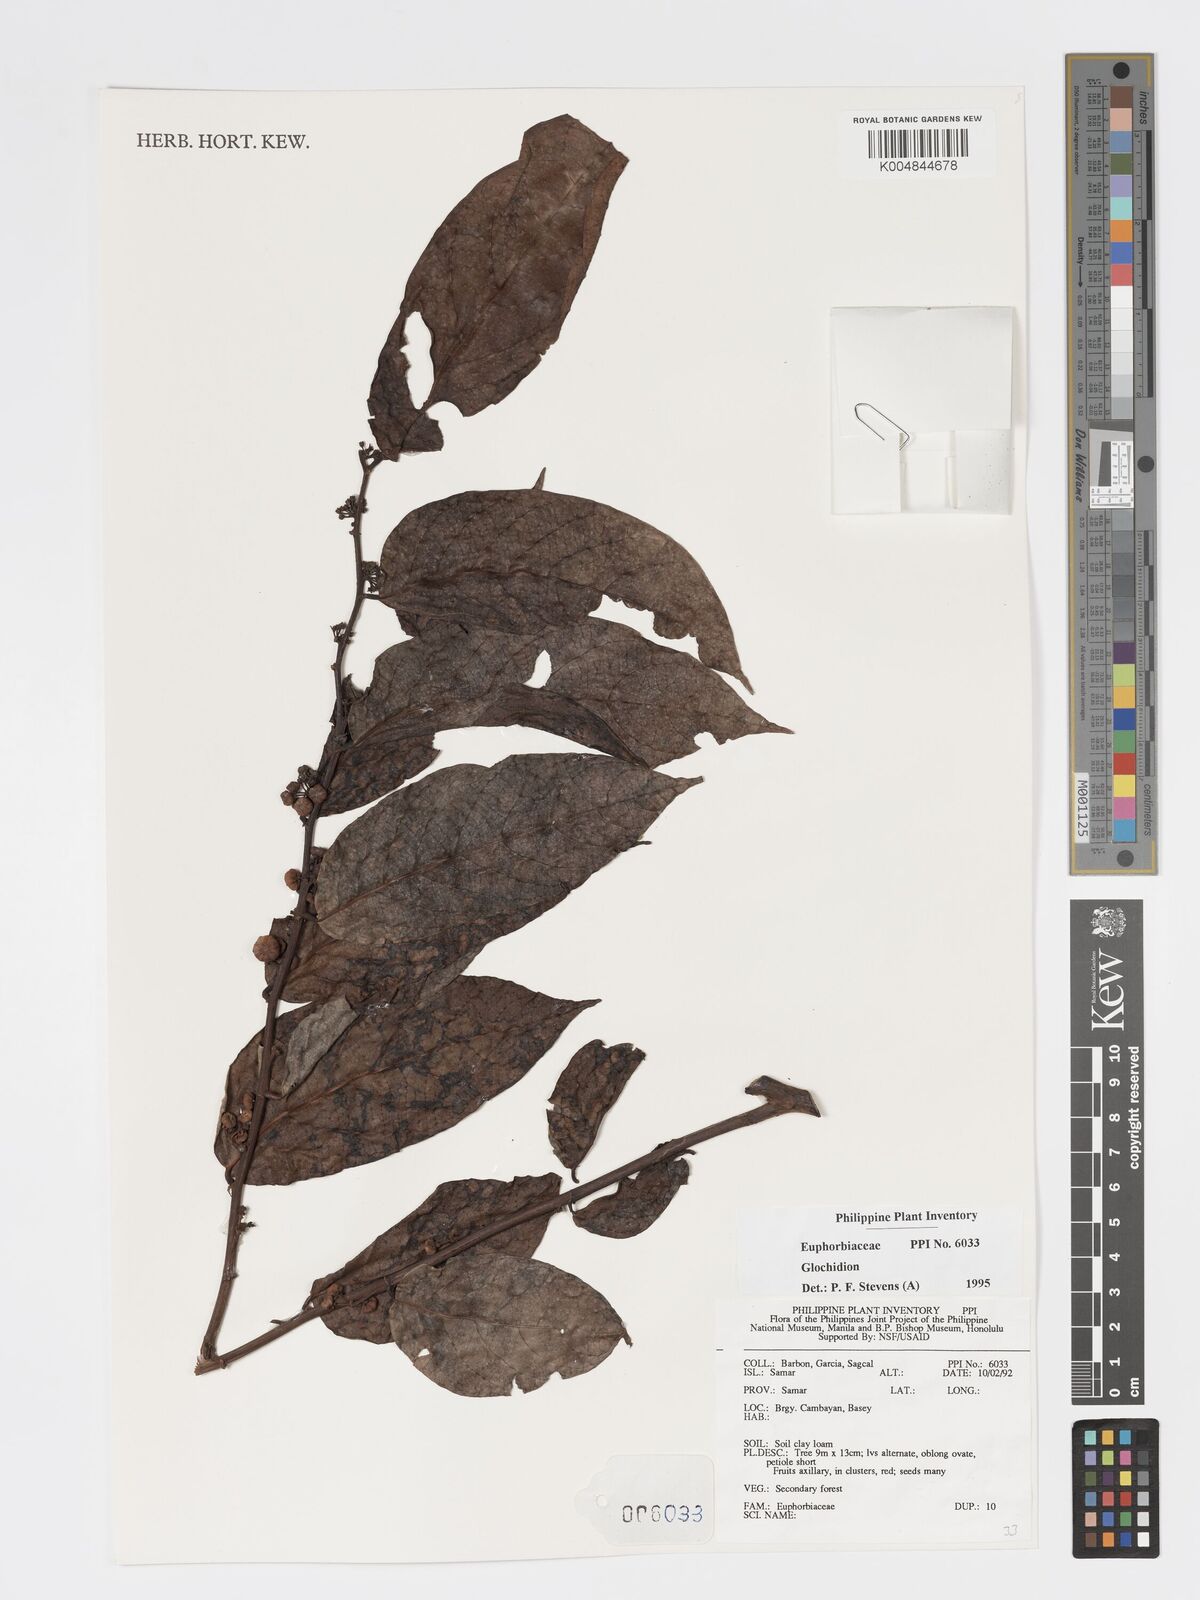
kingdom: Plantae
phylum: Tracheophyta
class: Magnoliopsida
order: Malpighiales
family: Phyllanthaceae
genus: Glochidion
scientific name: Glochidion
